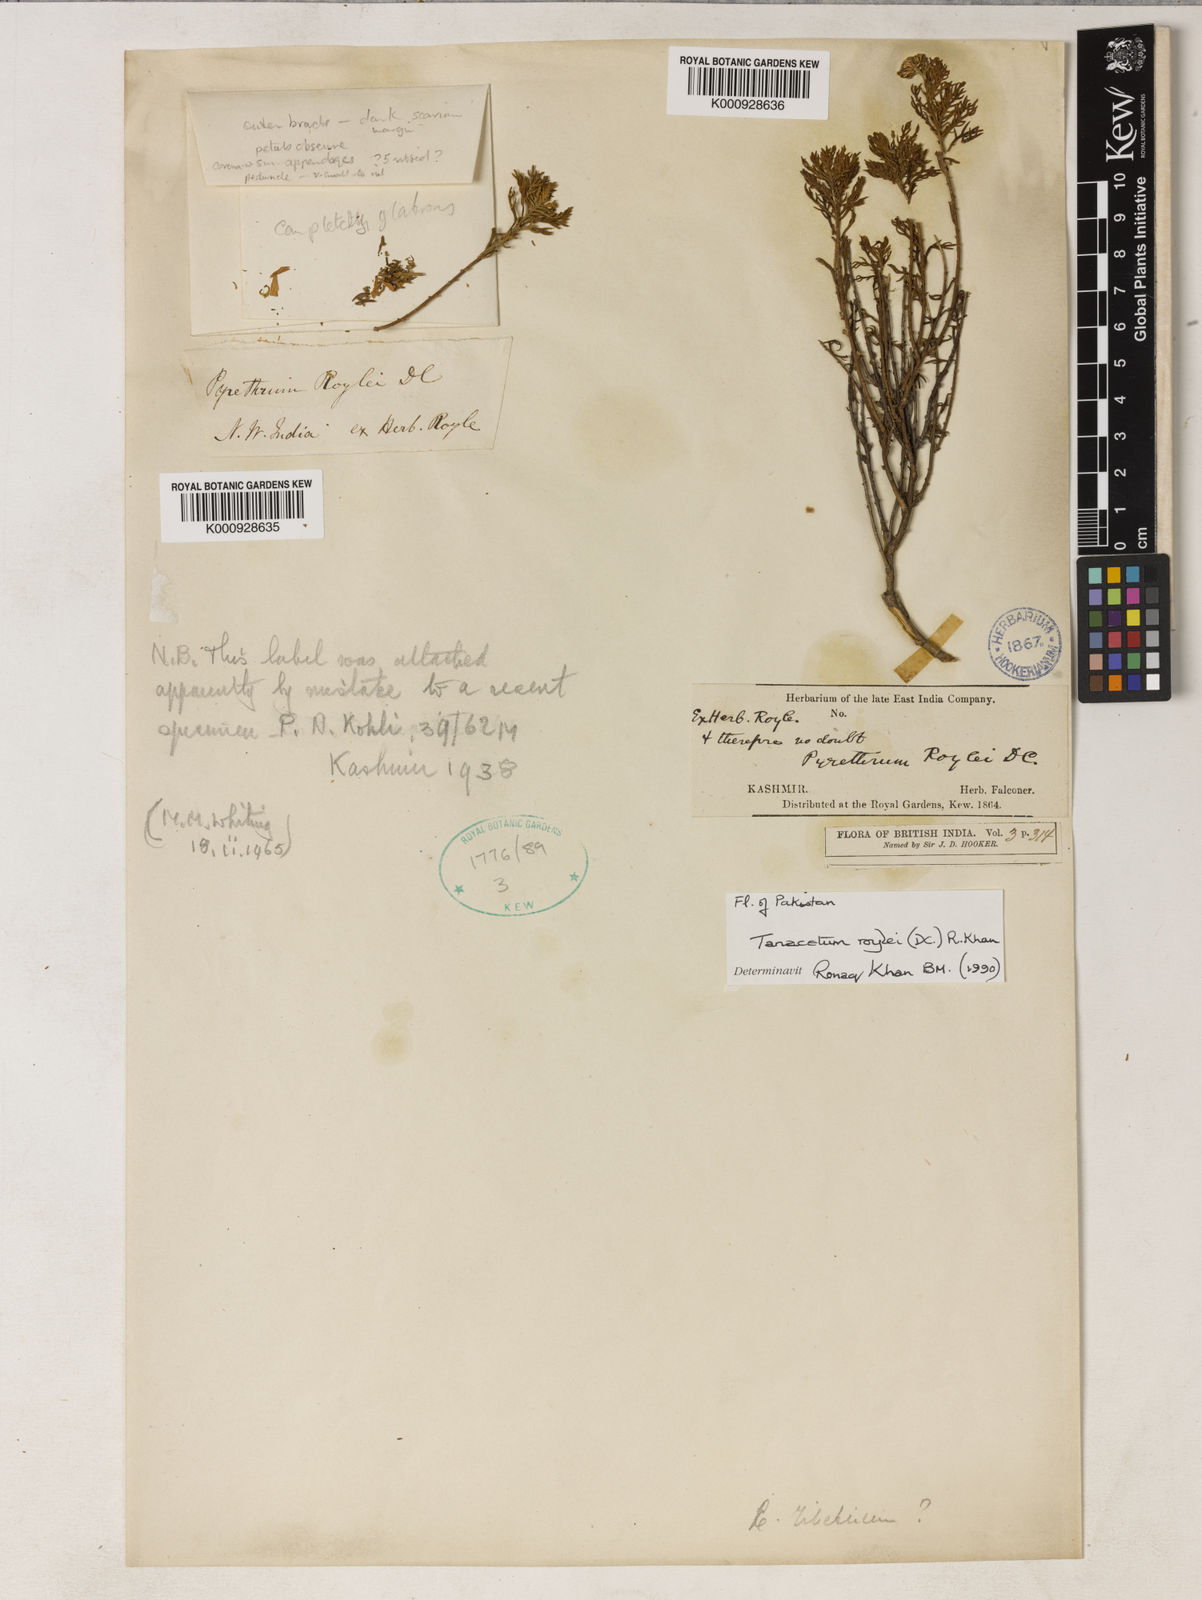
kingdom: Plantae
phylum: Tracheophyta
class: Magnoliopsida
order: Asterales
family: Asteraceae
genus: Tanacetum
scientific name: Tanacetum roylei
